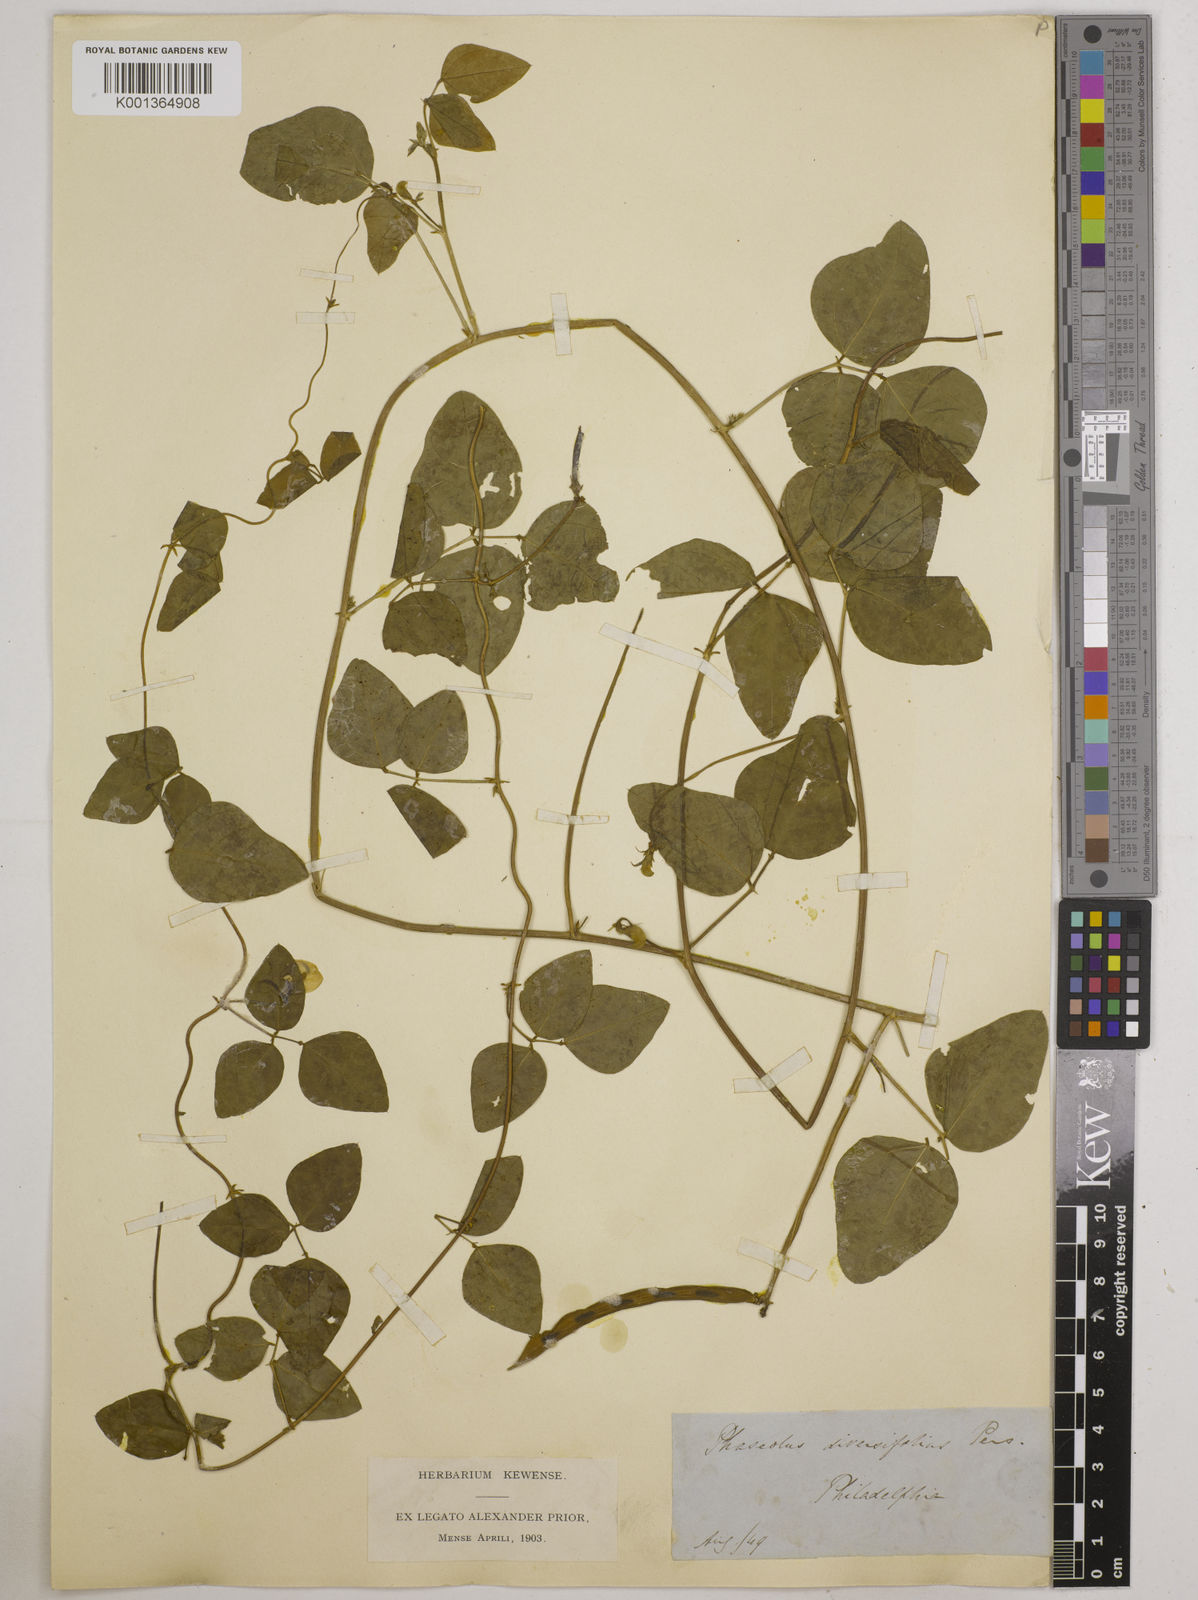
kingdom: Plantae
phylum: Tracheophyta
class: Magnoliopsida
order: Fabales
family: Fabaceae
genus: Strophostyles
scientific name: Strophostyles
